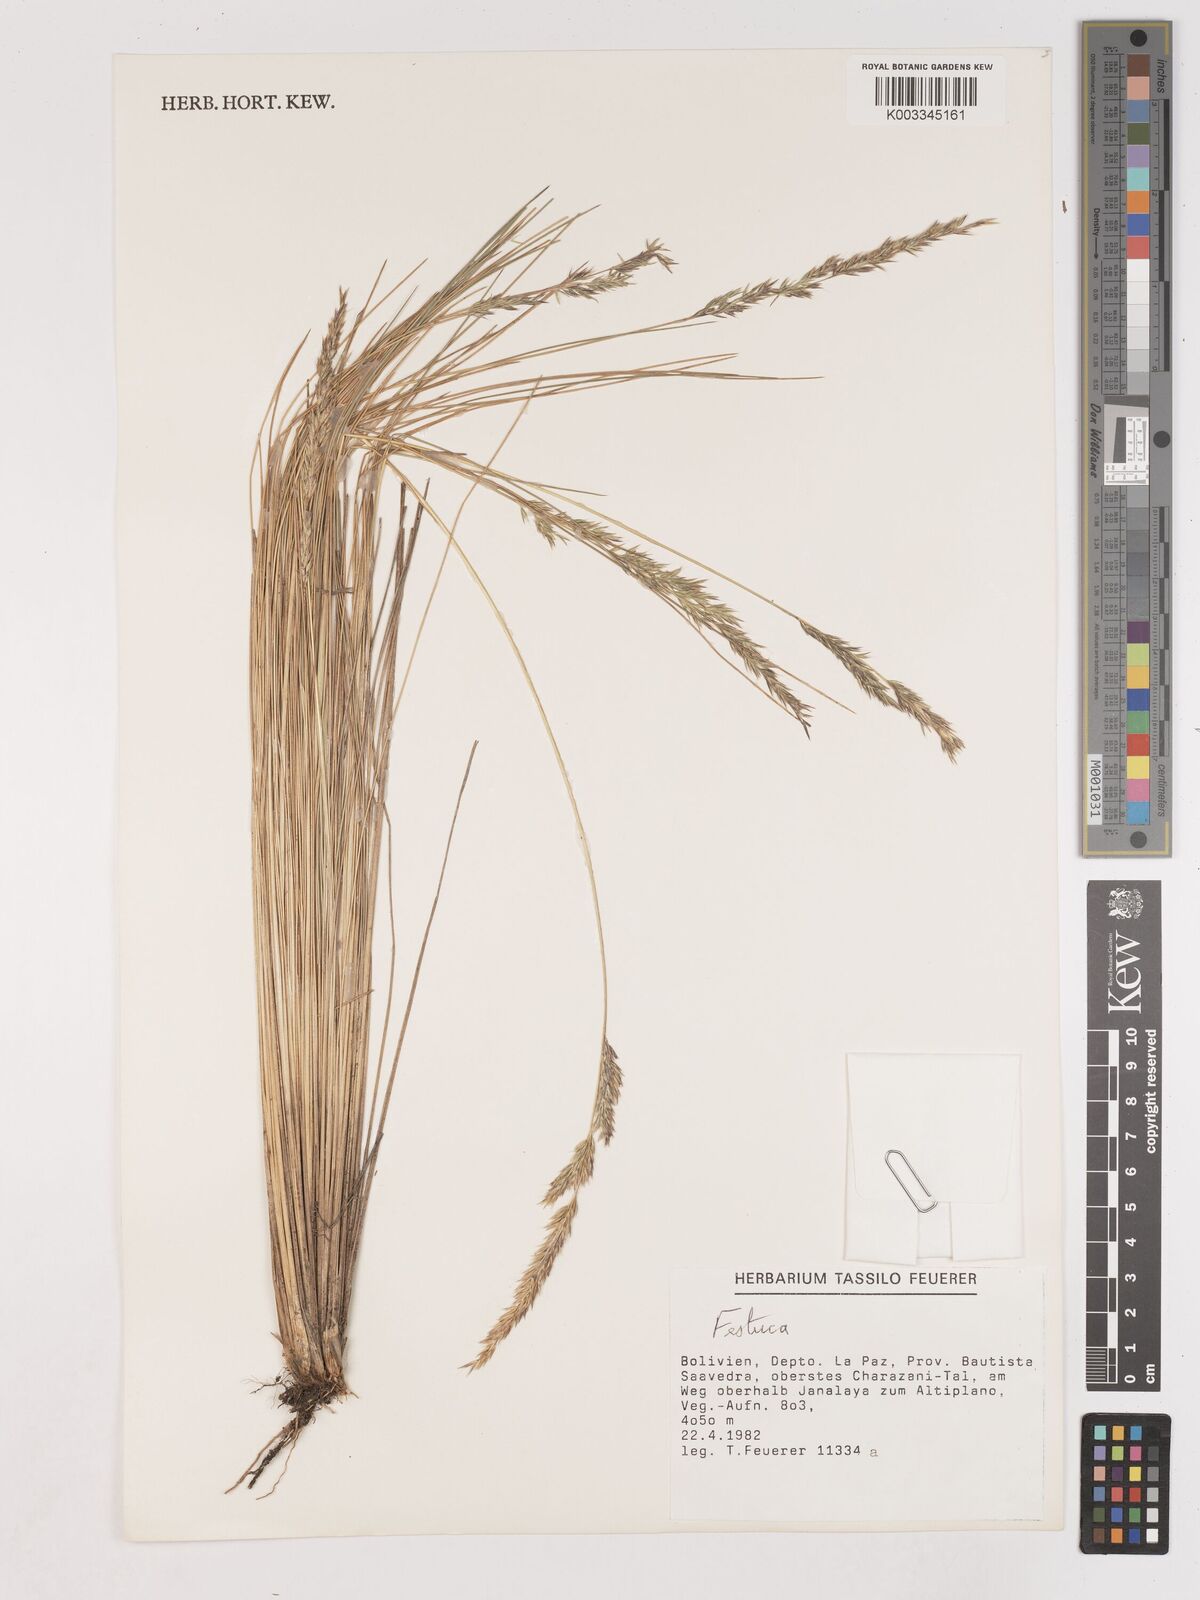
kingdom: Plantae
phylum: Tracheophyta
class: Liliopsida
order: Poales
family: Poaceae
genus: Calamagrostis
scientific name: Calamagrostis
